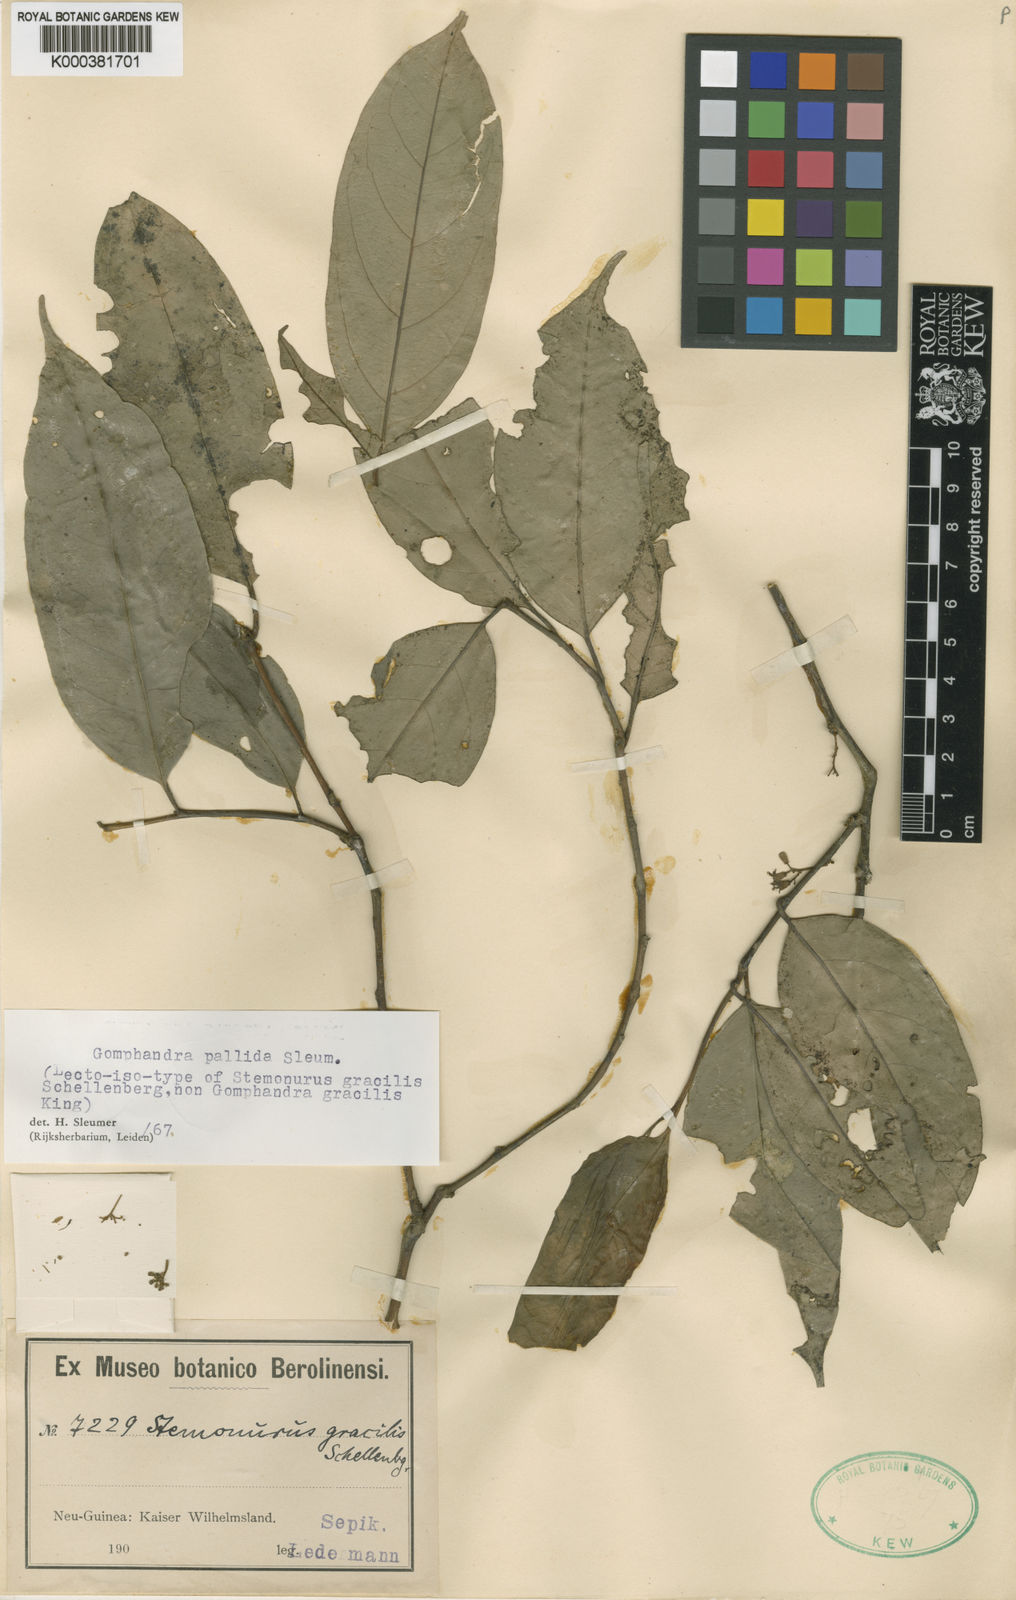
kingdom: Plantae
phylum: Tracheophyta
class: Magnoliopsida
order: Cardiopteridales
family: Stemonuraceae
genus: Gomphandra
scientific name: Gomphandra pallida
